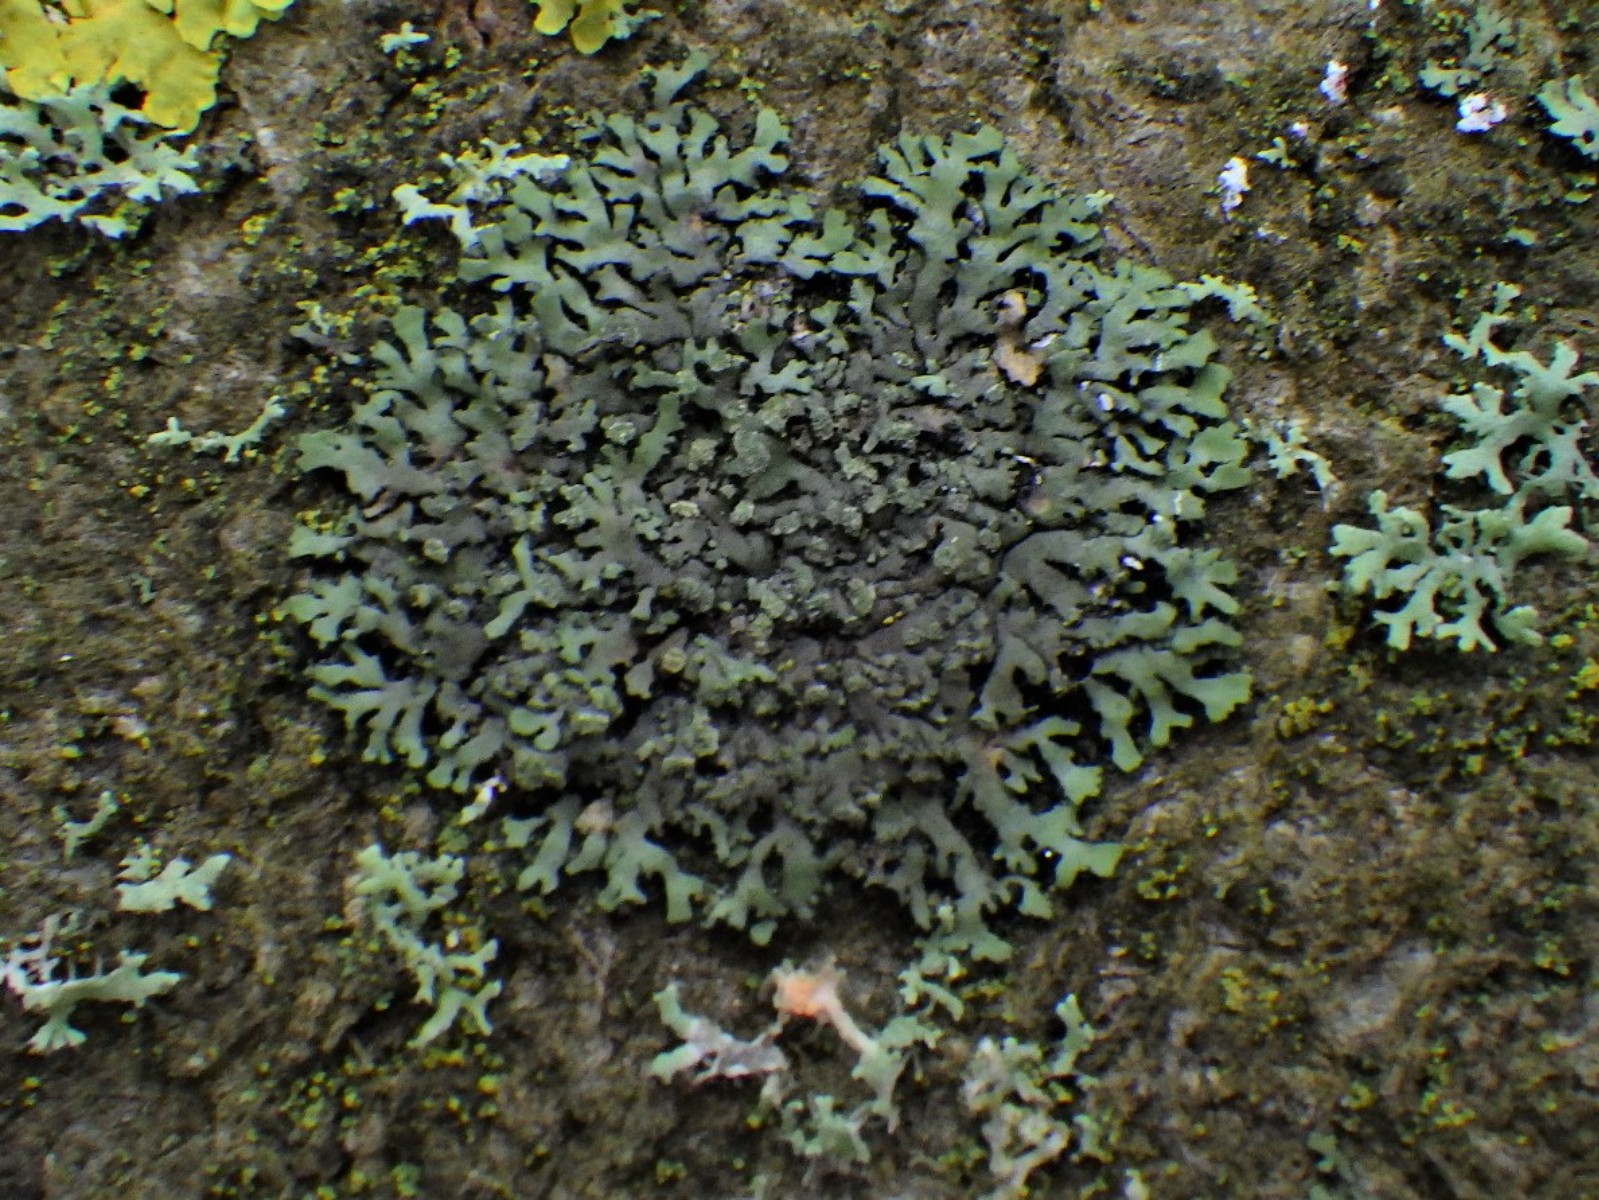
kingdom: Fungi
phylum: Ascomycota
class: Lecanoromycetes
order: Caliciales
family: Physciaceae
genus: Phaeophyscia
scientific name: Phaeophyscia orbicularis
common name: grågrøn rosetlav
